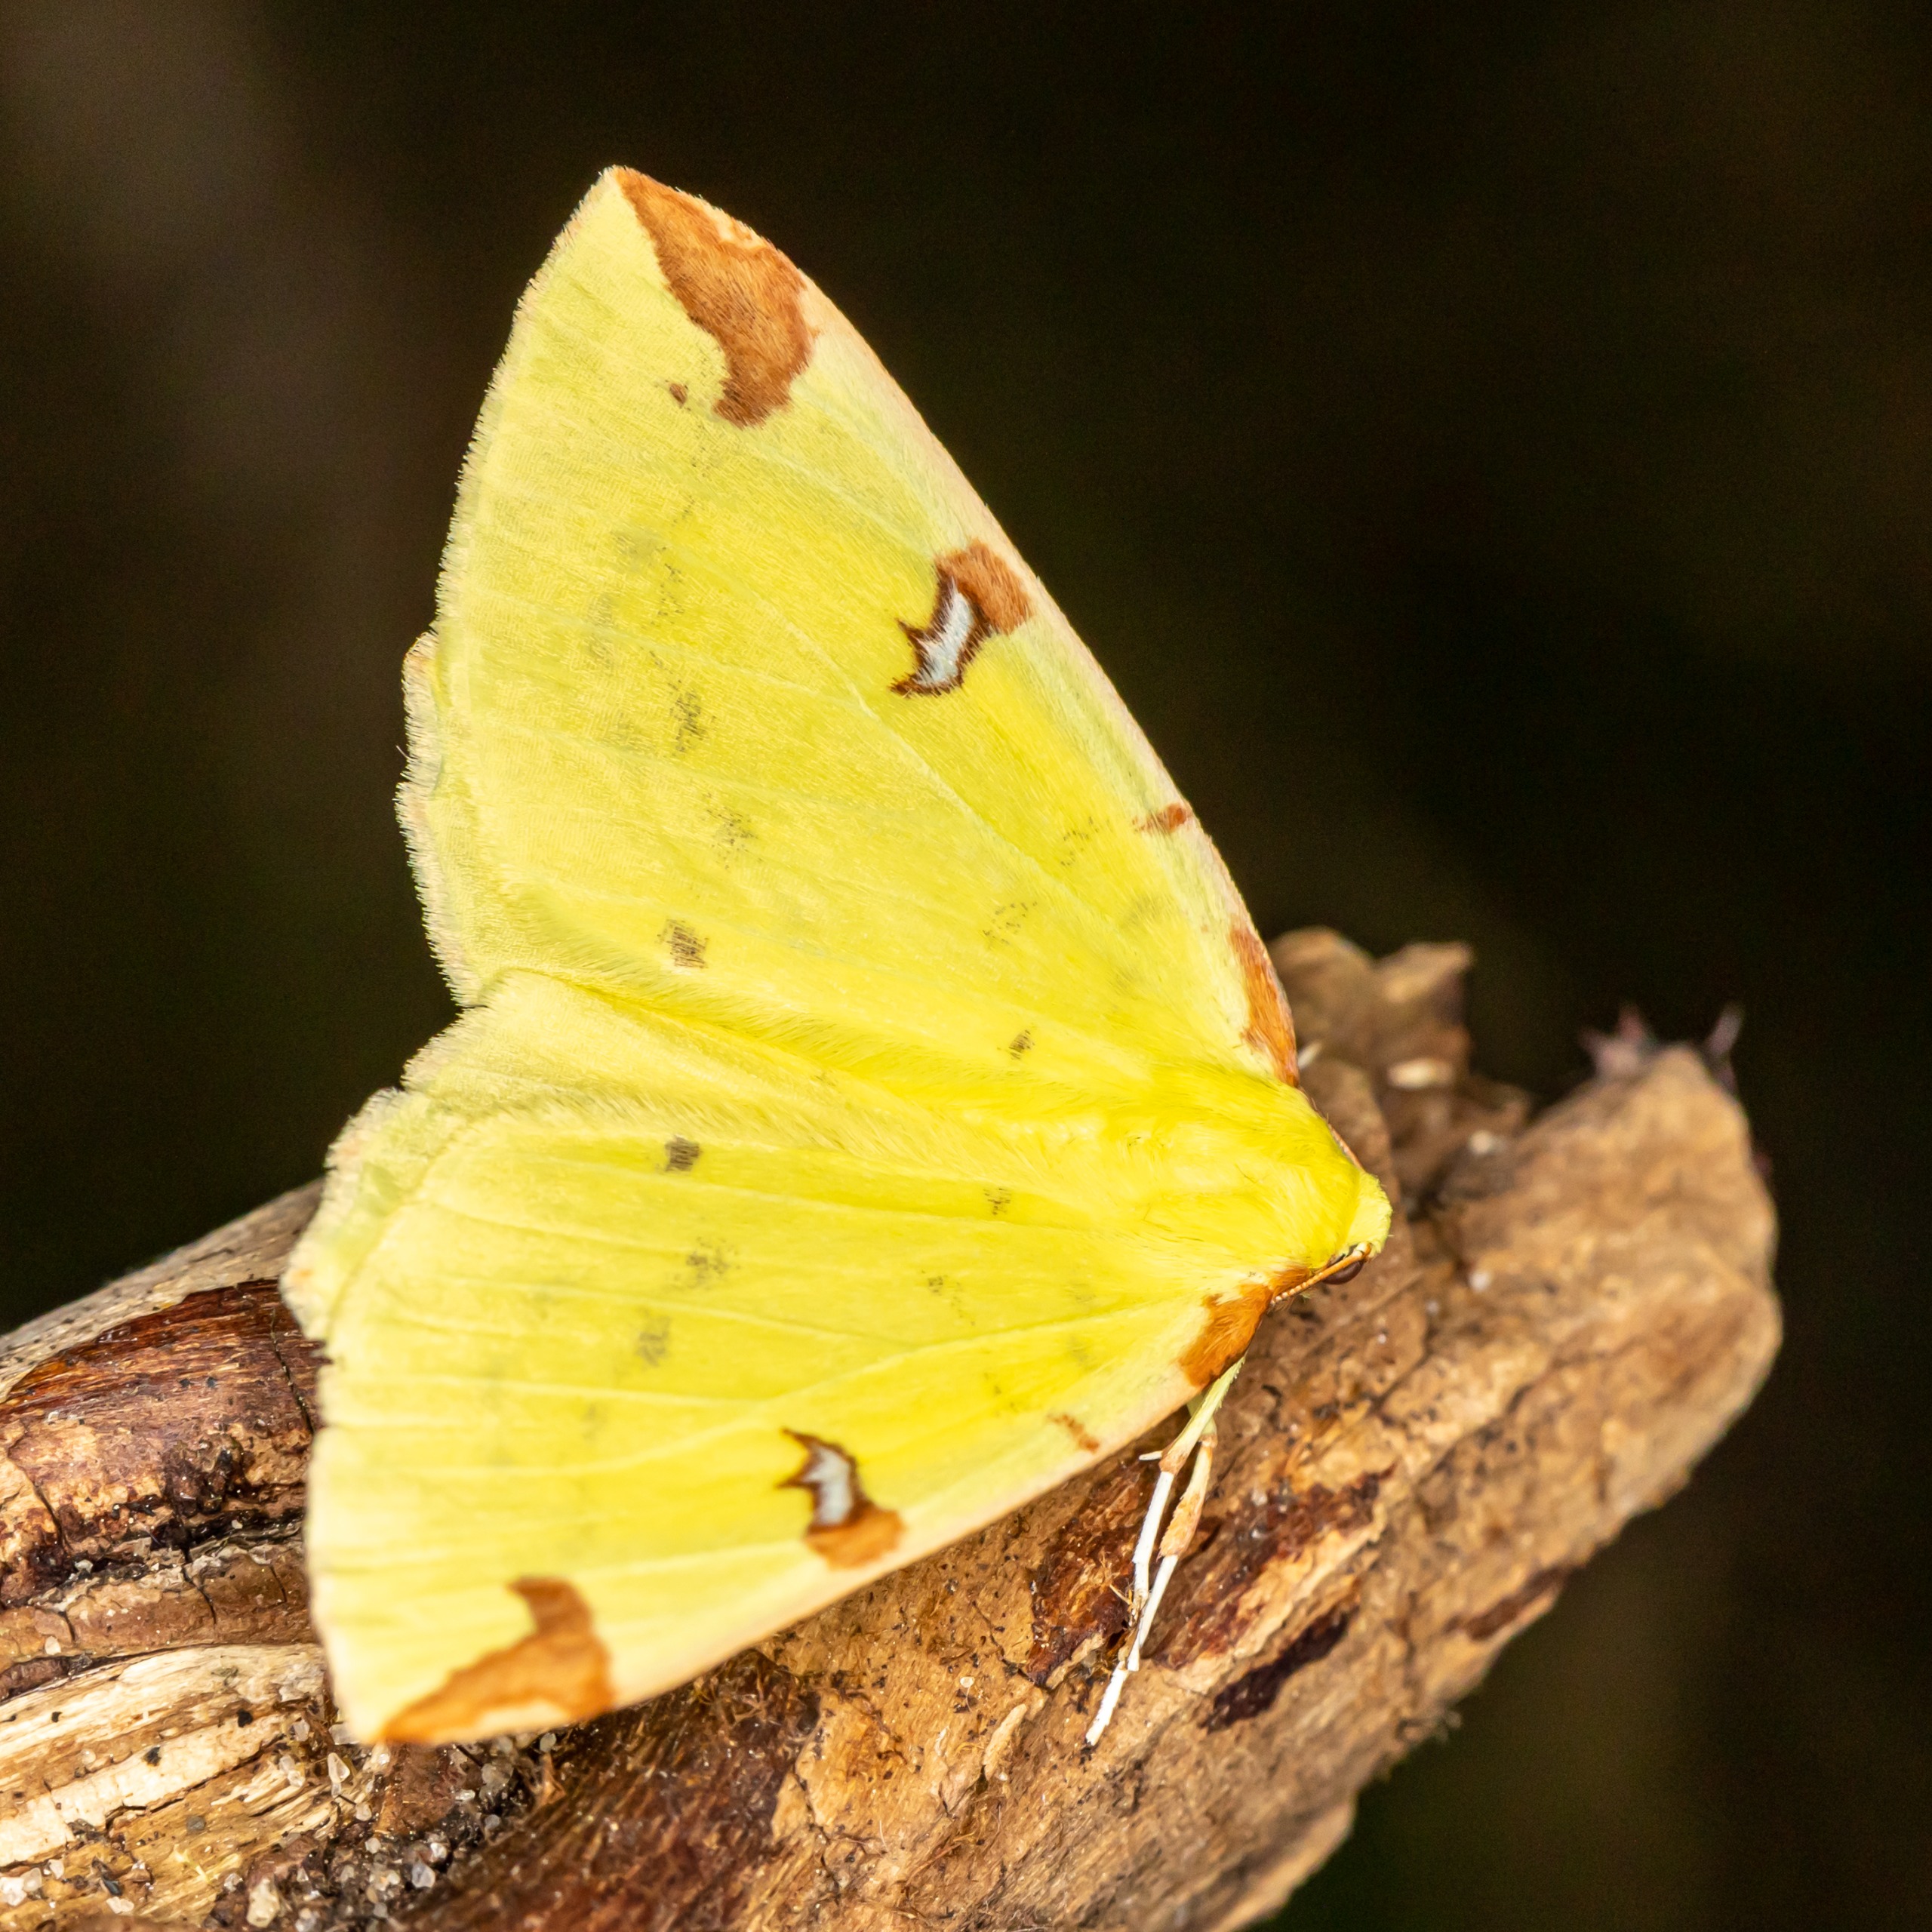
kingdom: Animalia
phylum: Arthropoda
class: Insecta
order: Lepidoptera
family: Geometridae
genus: Opisthograptis
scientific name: Opisthograptis luteolata
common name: Citronmåler
